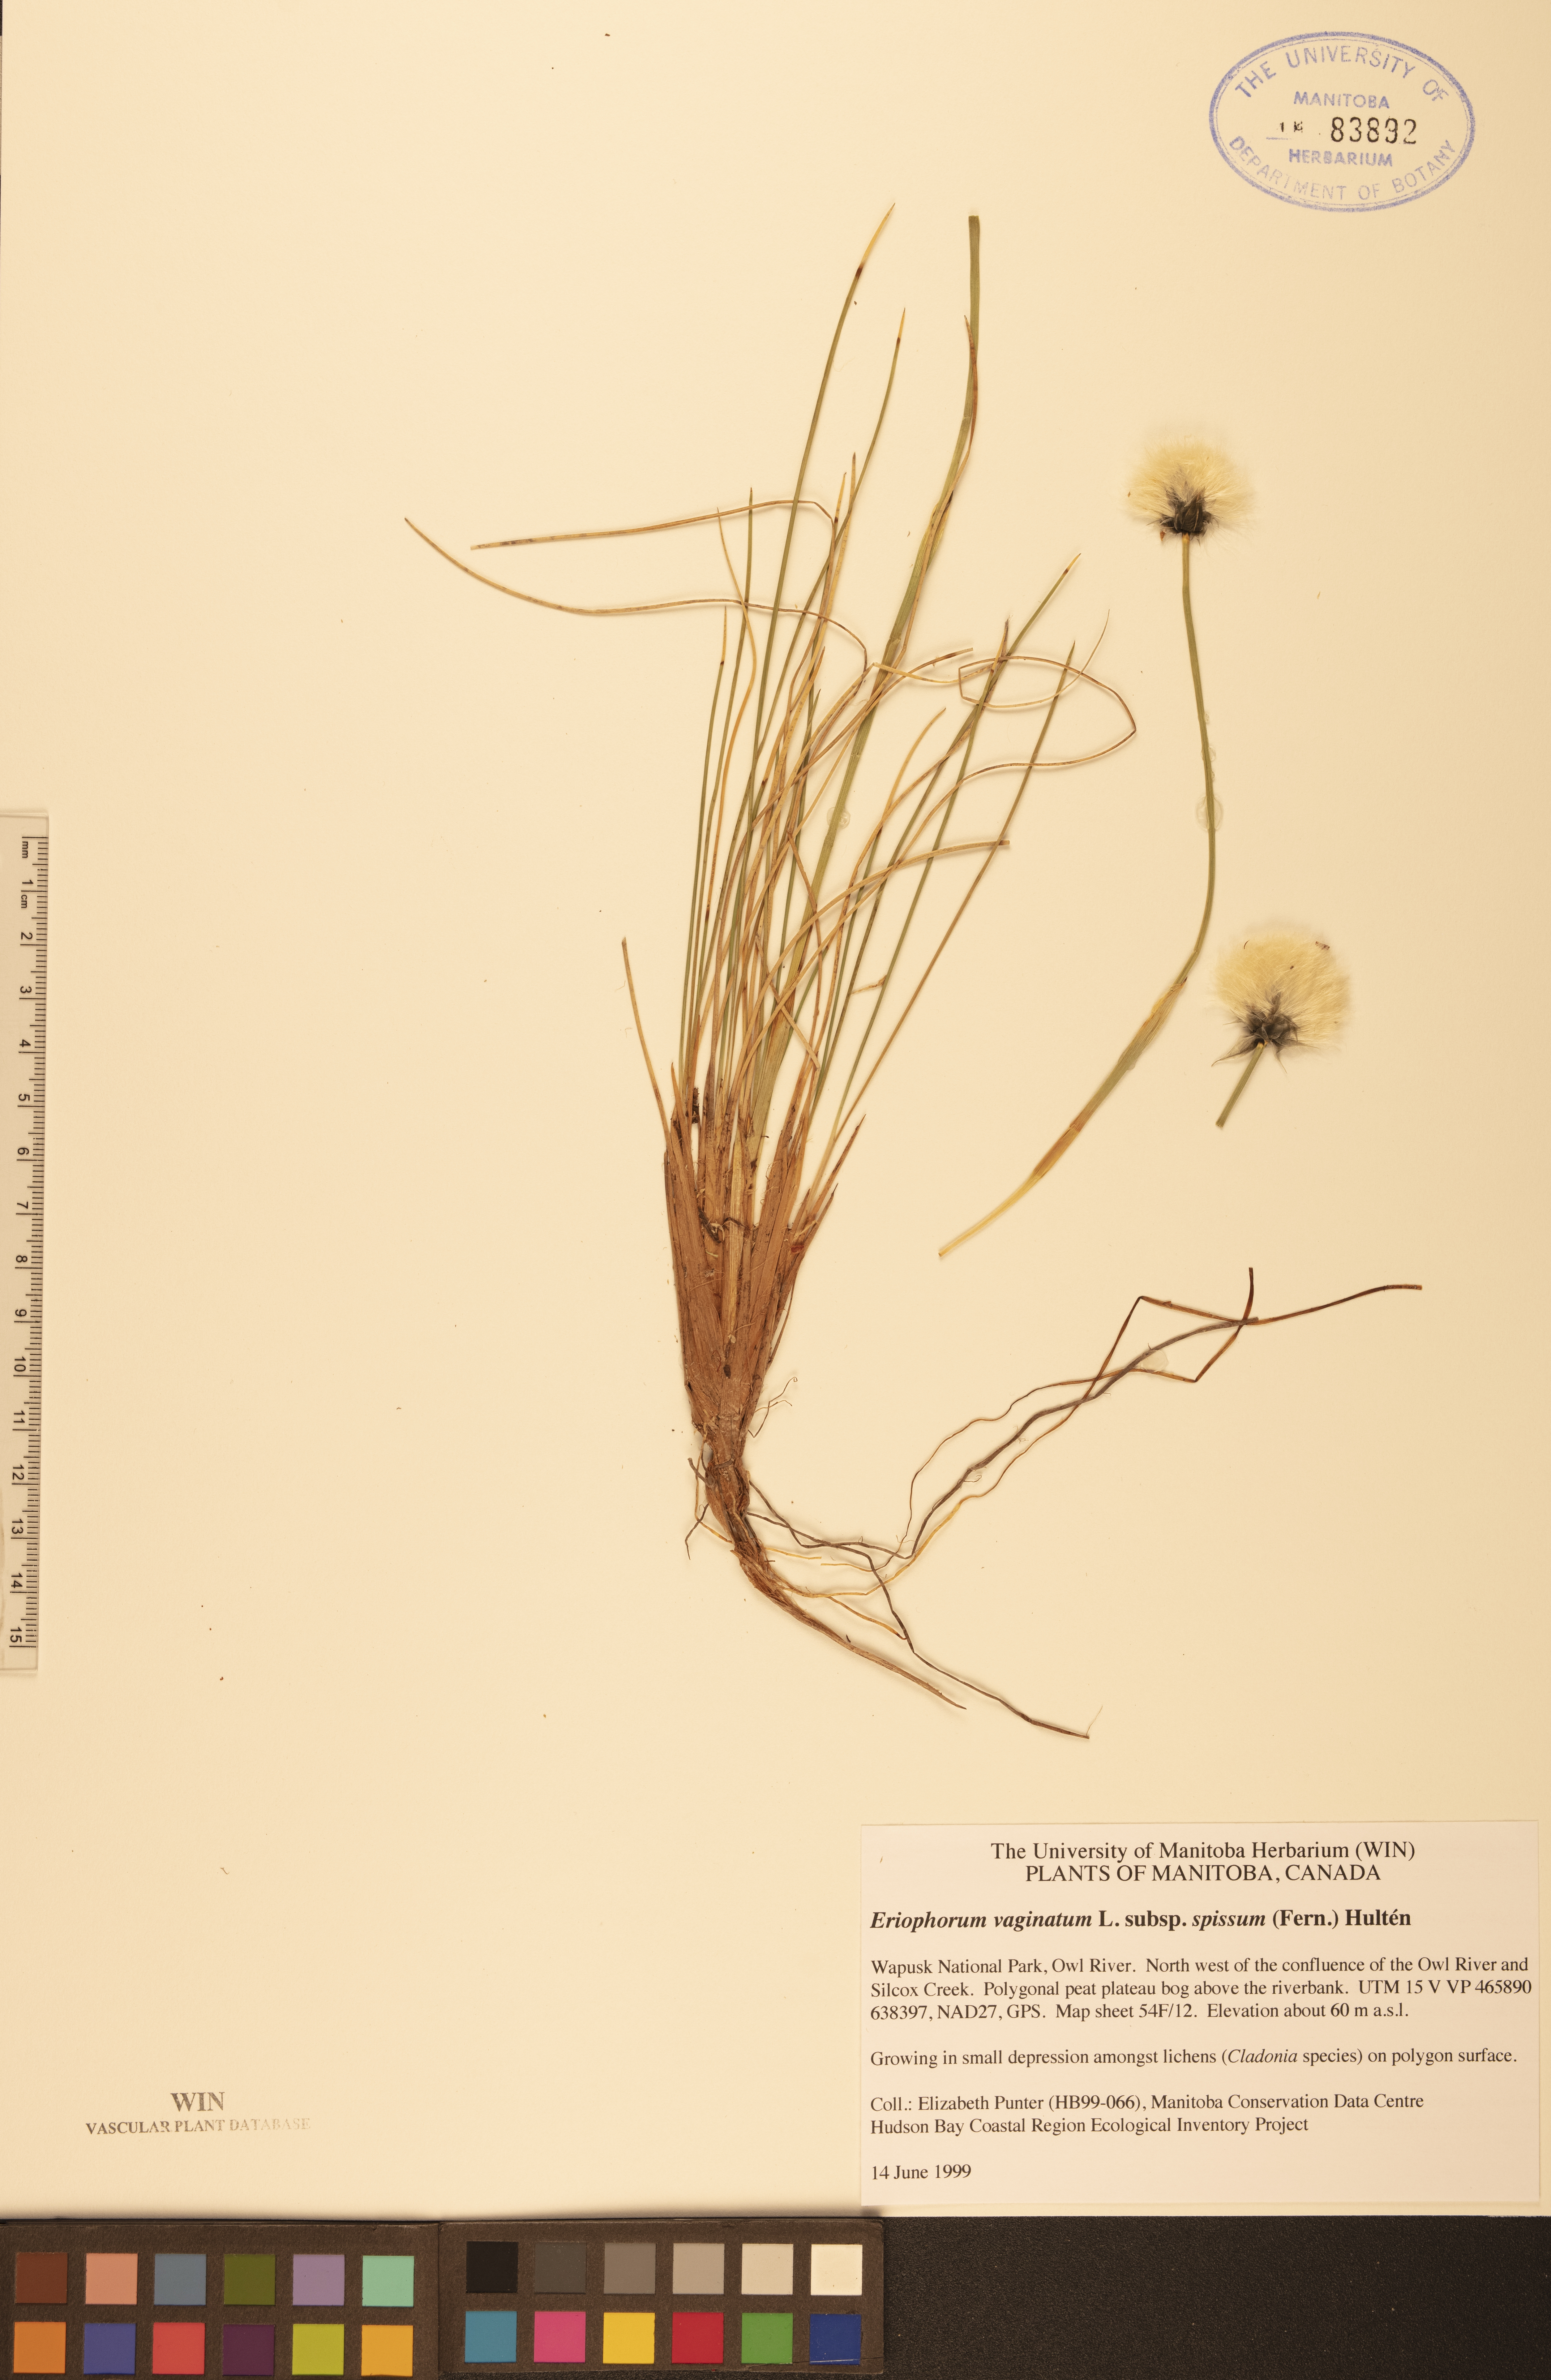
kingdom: Plantae
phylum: Tracheophyta
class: Liliopsida
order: Poales
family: Cyperaceae
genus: Eriophorum
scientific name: Eriophorum vaginatum
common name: Hare's-tail cottongrass
